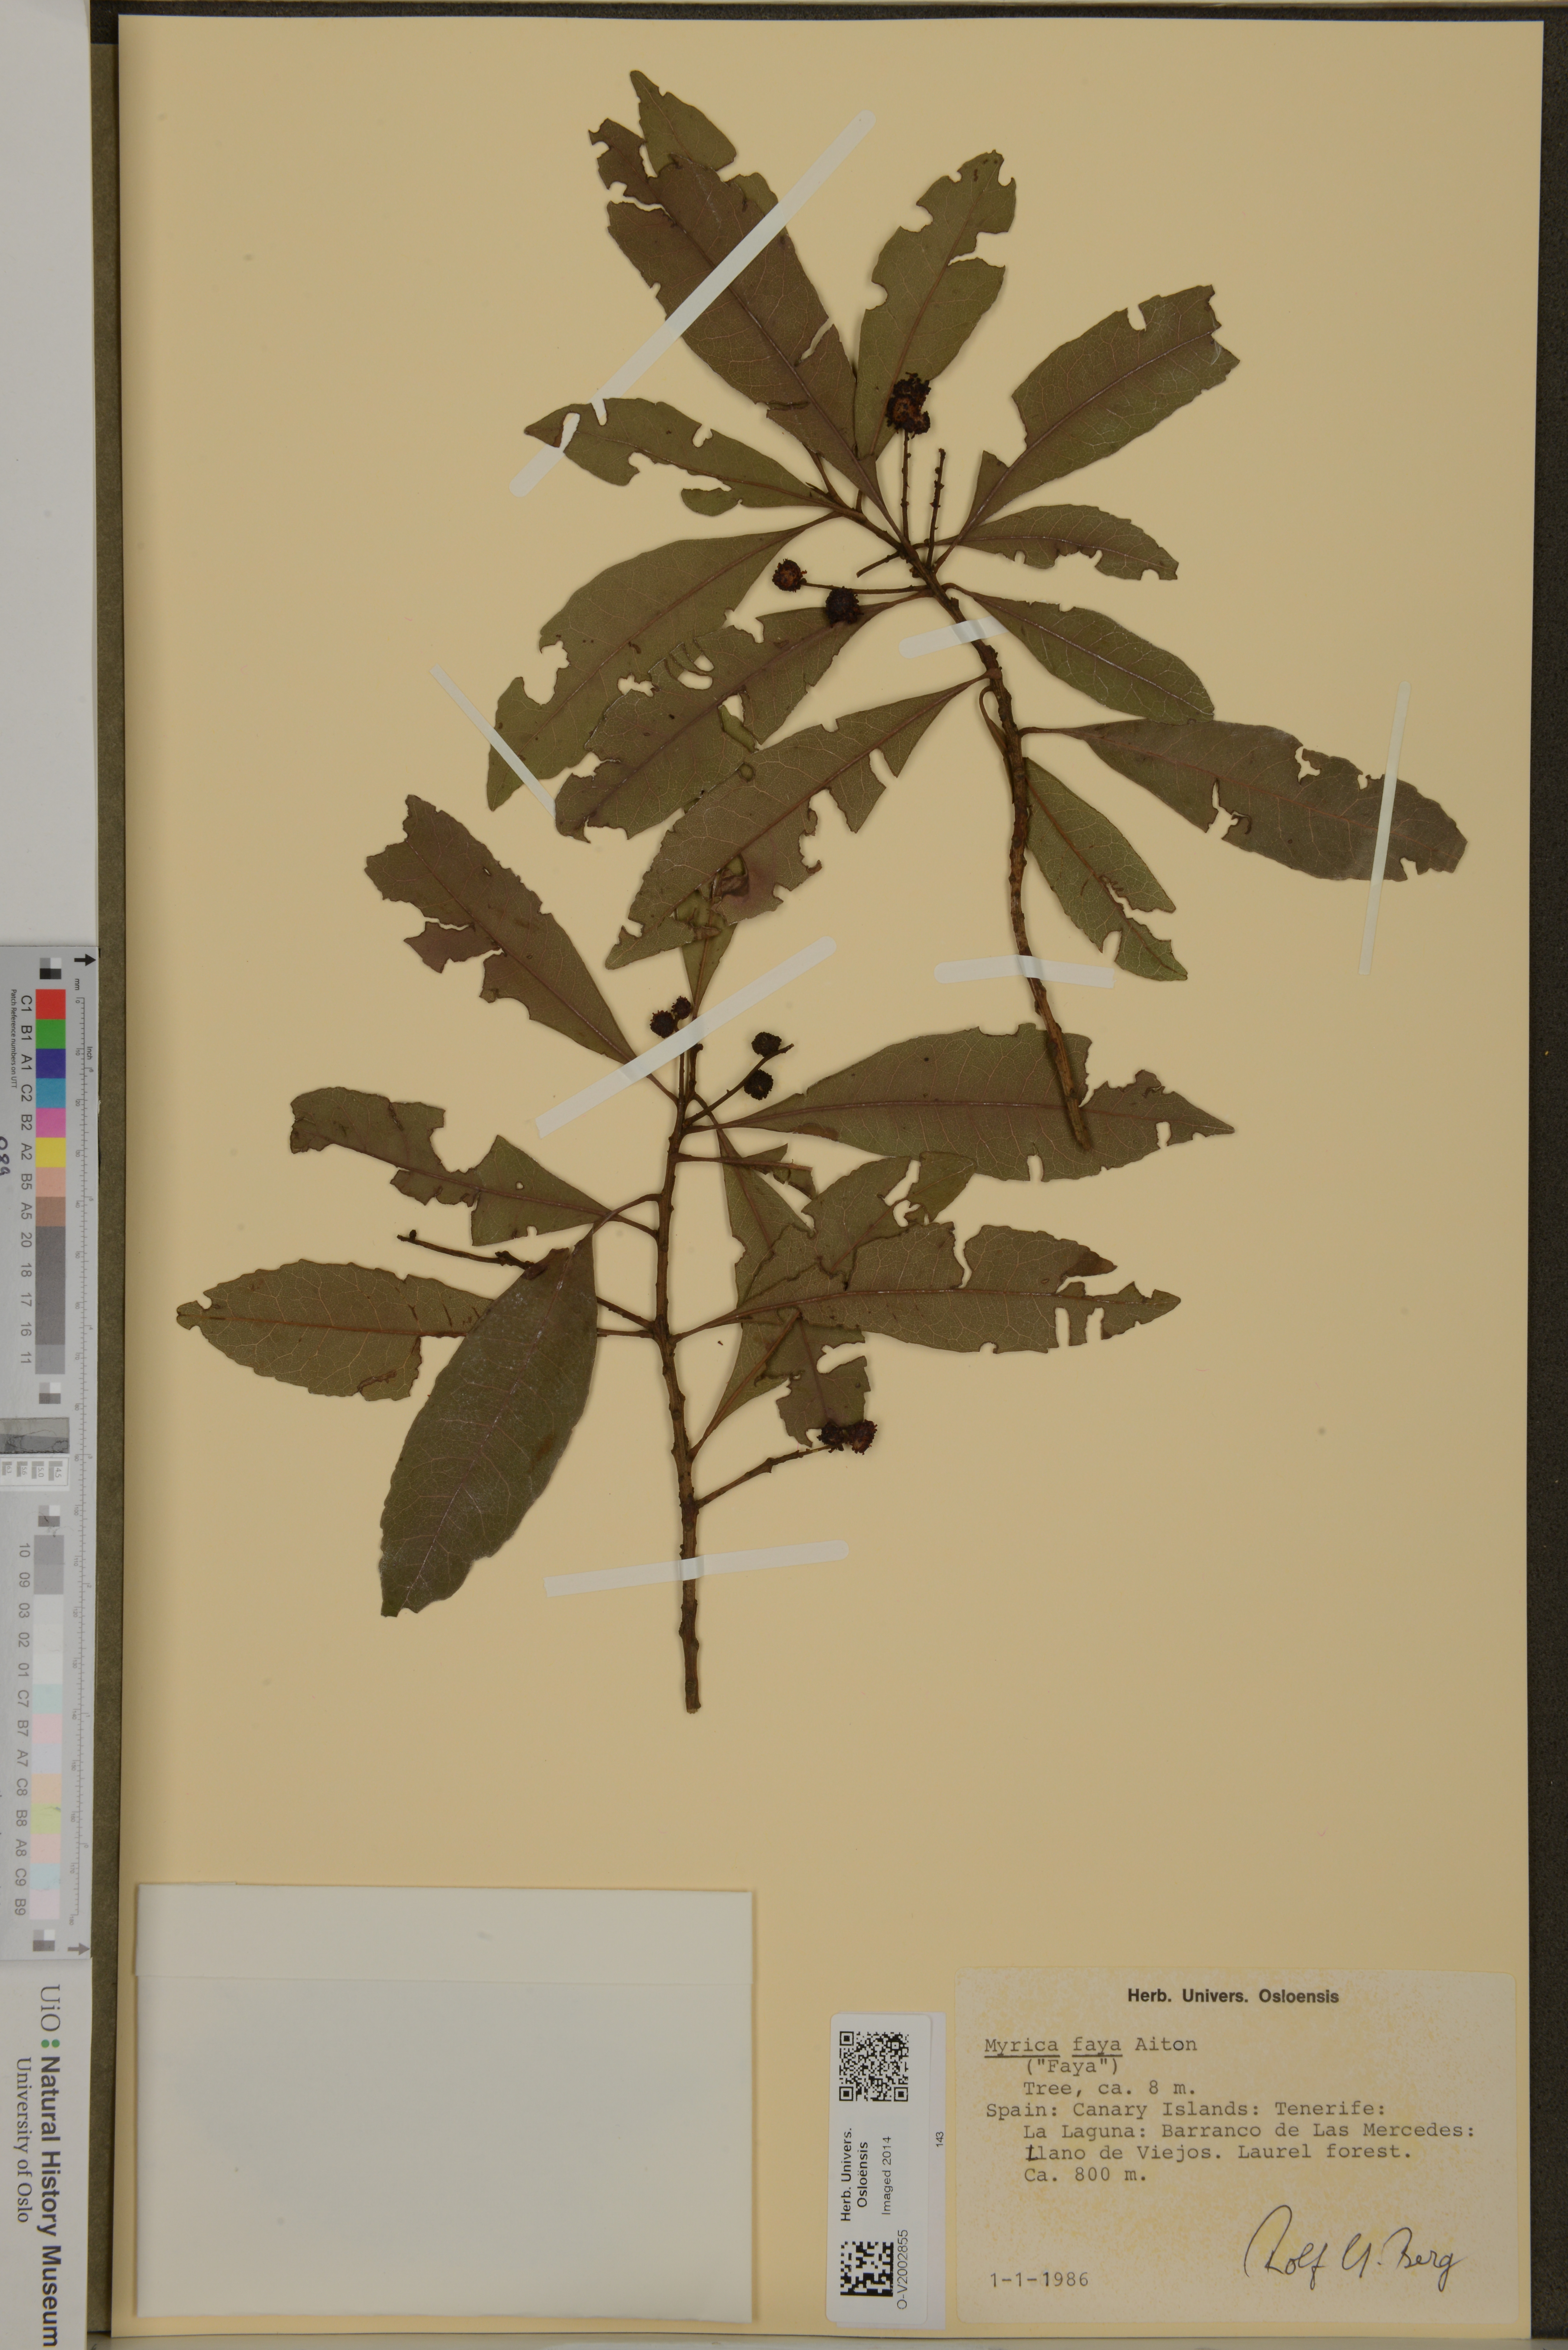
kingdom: Plantae
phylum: Tracheophyta
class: Magnoliopsida
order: Fagales
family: Myricaceae
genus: Morella
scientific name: Morella faya
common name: Firetree
